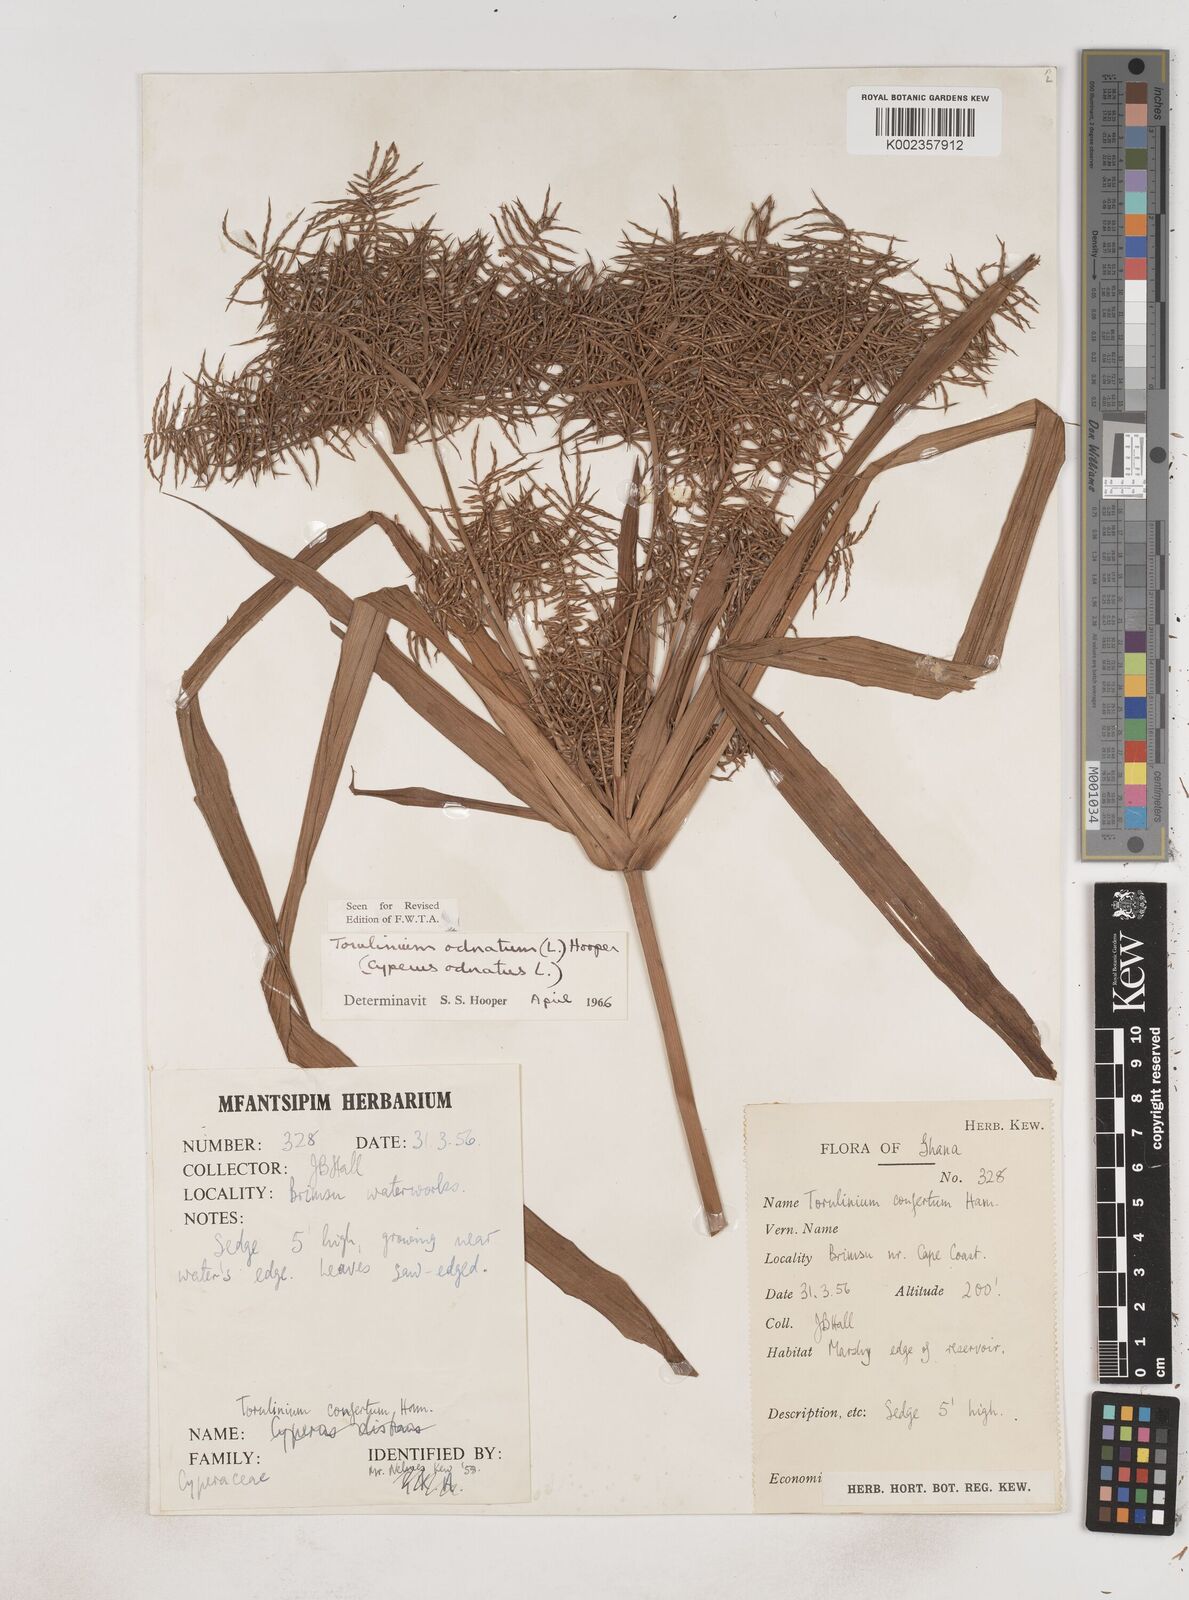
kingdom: Plantae
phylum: Tracheophyta
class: Liliopsida
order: Poales
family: Cyperaceae
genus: Cyperus
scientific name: Cyperus odoratus
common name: Fragrant flatsedge
